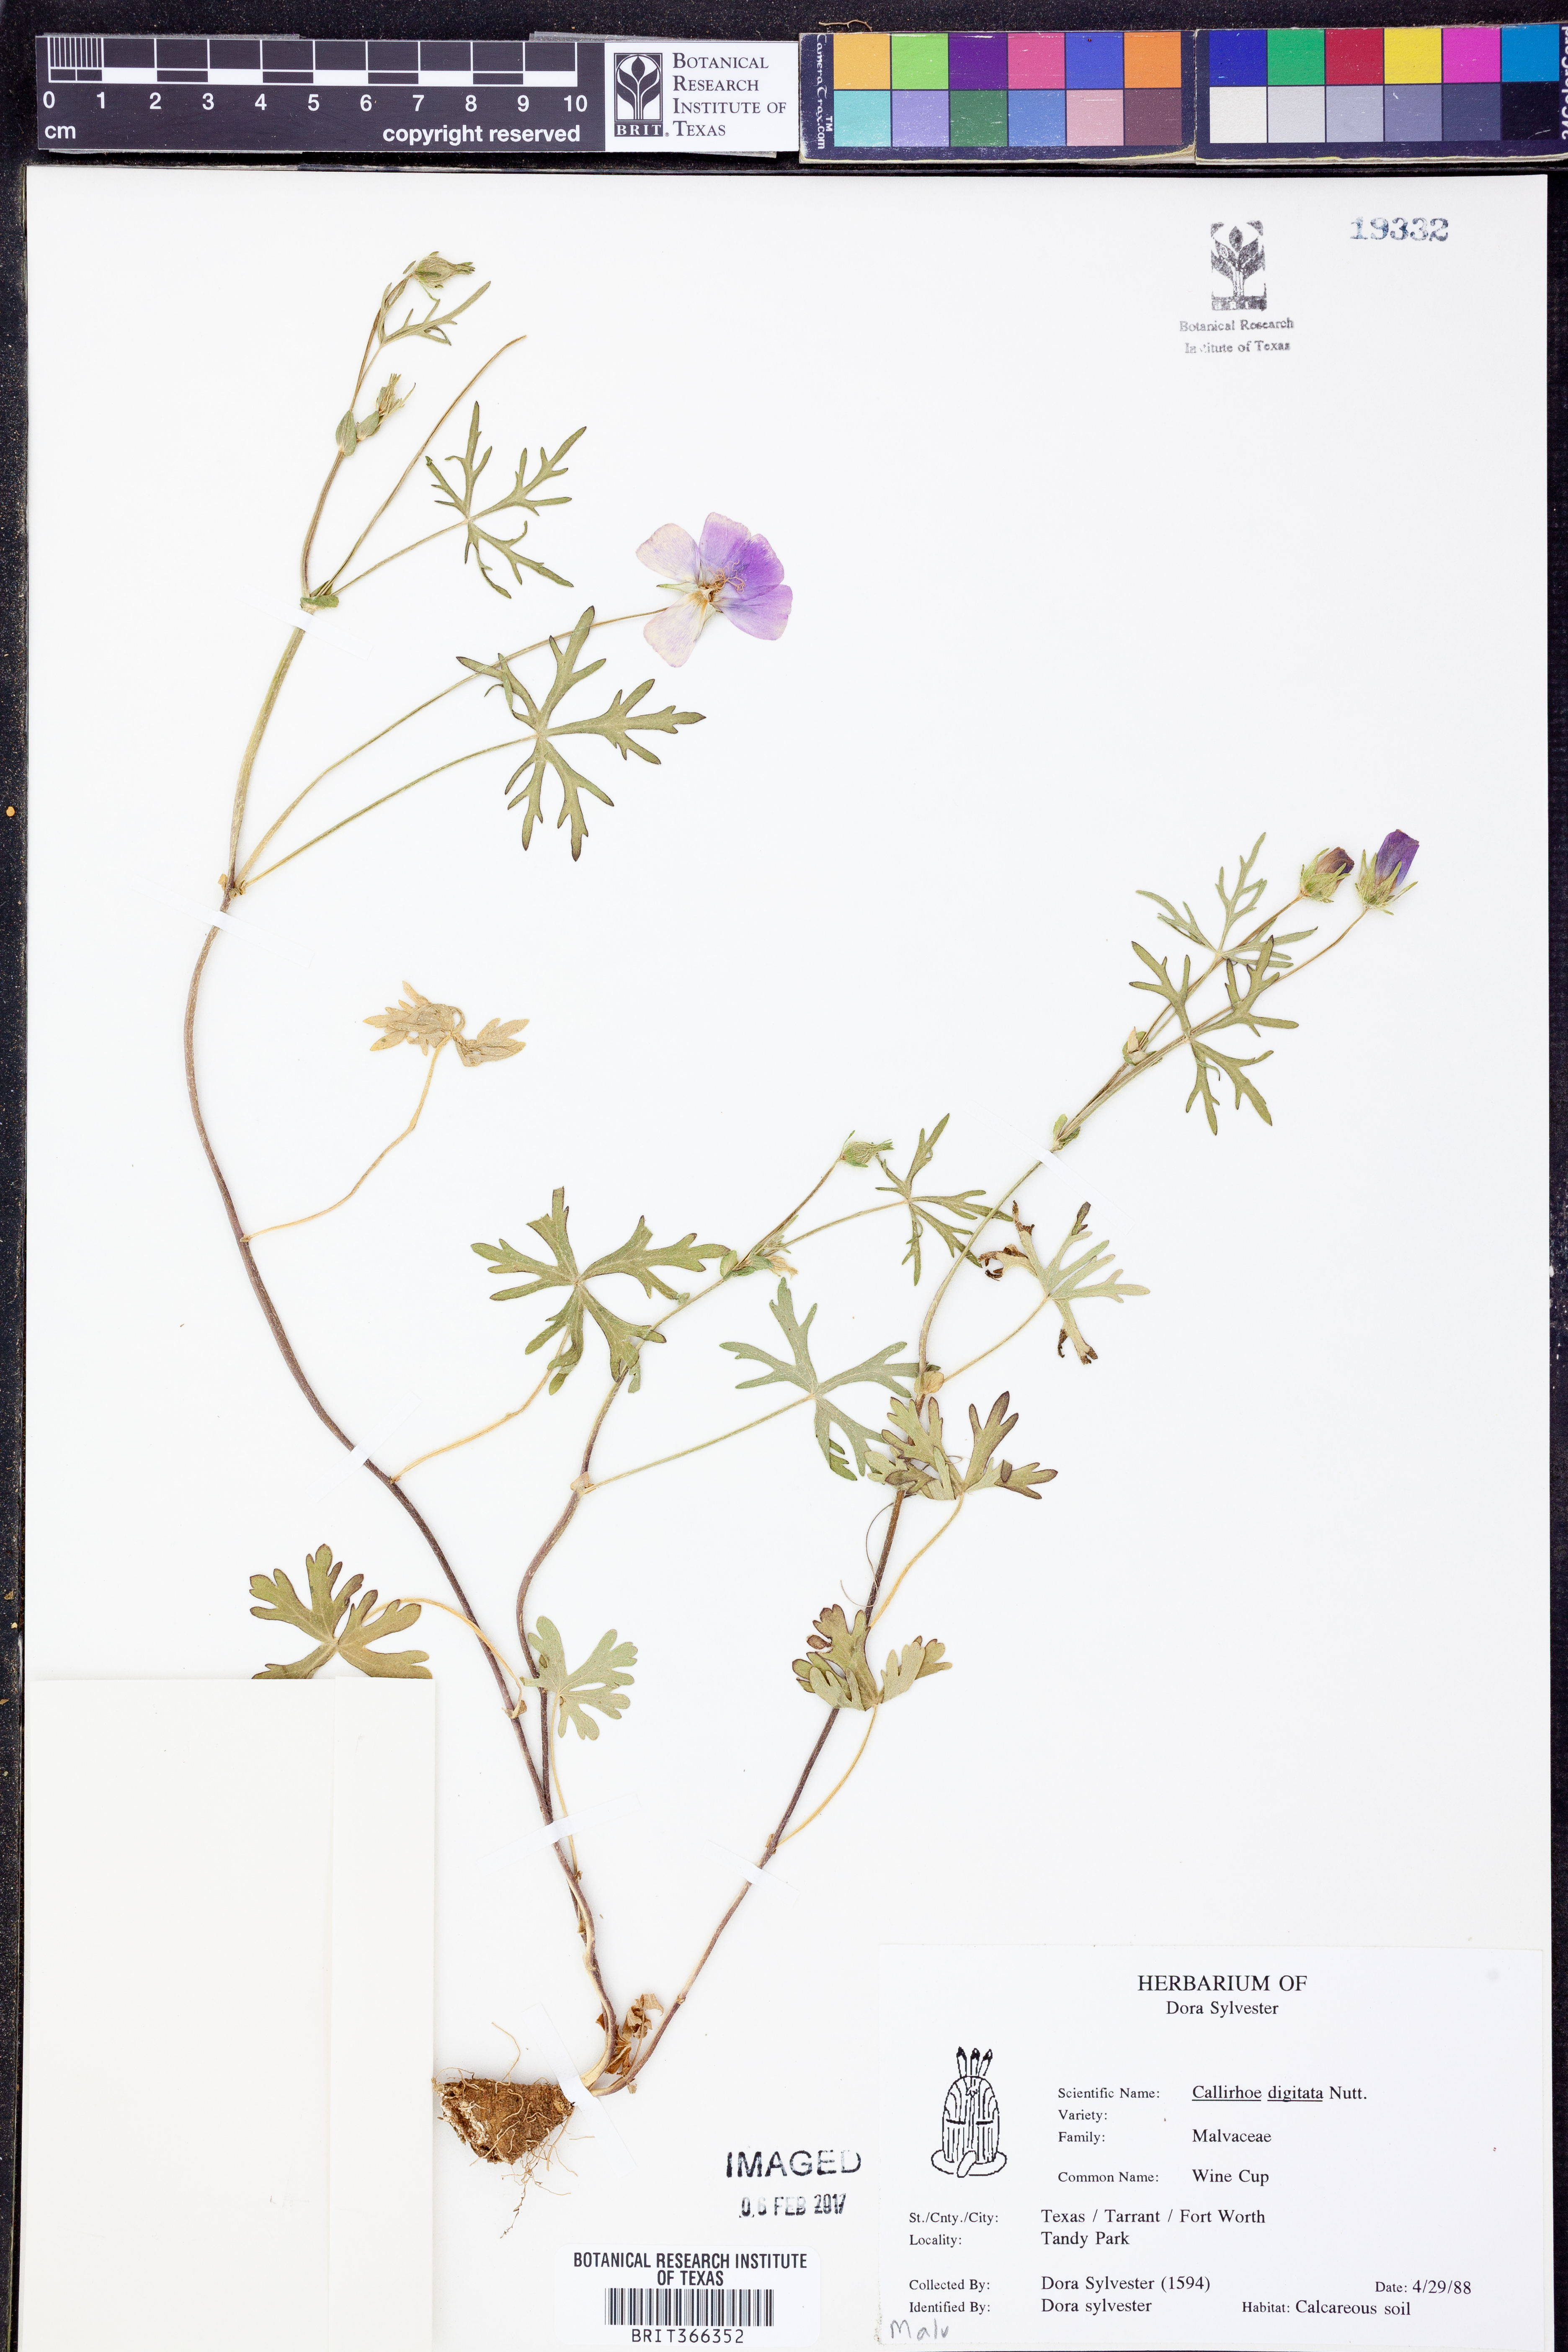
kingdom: Plantae
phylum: Tracheophyta
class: Magnoliopsida
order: Malvales
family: Malvaceae
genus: Callirhoe
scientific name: Callirhoe digitata
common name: Finger poppy-mallow
